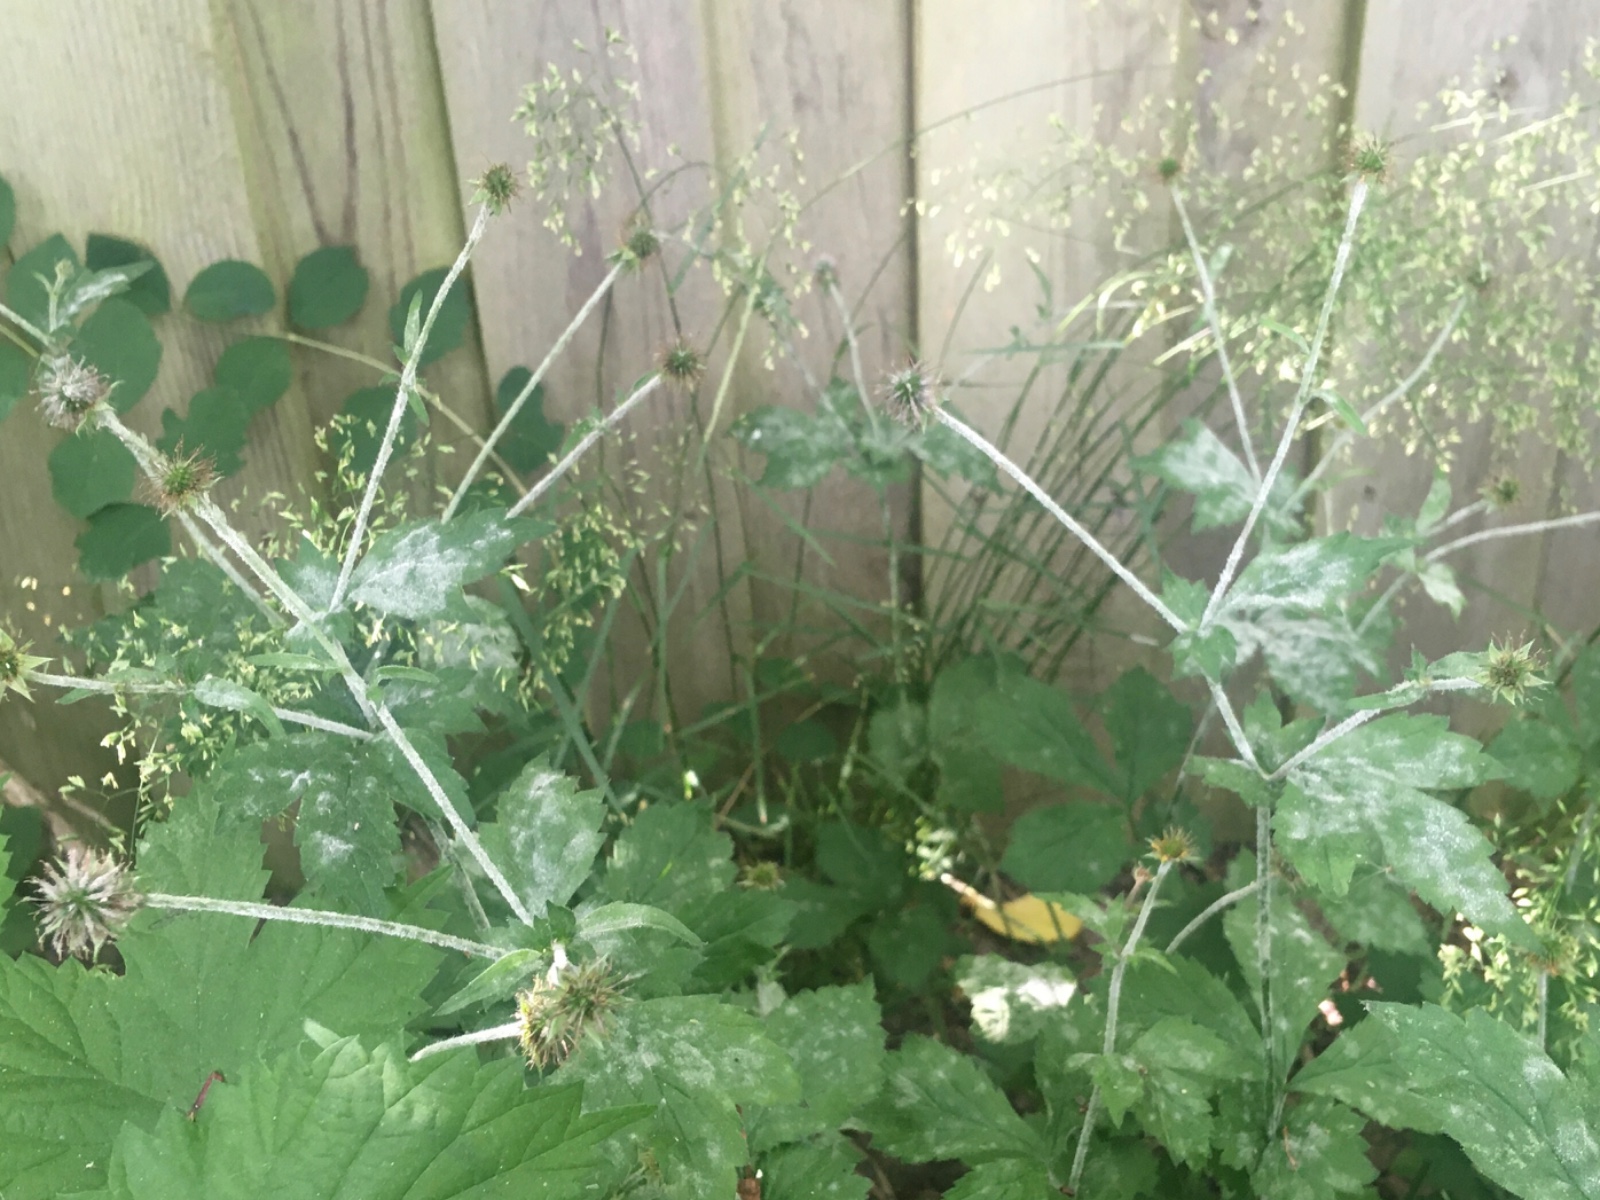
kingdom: Fungi
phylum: Ascomycota
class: Leotiomycetes
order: Helotiales
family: Erysiphaceae
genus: Podosphaera
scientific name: Podosphaera aphanis
